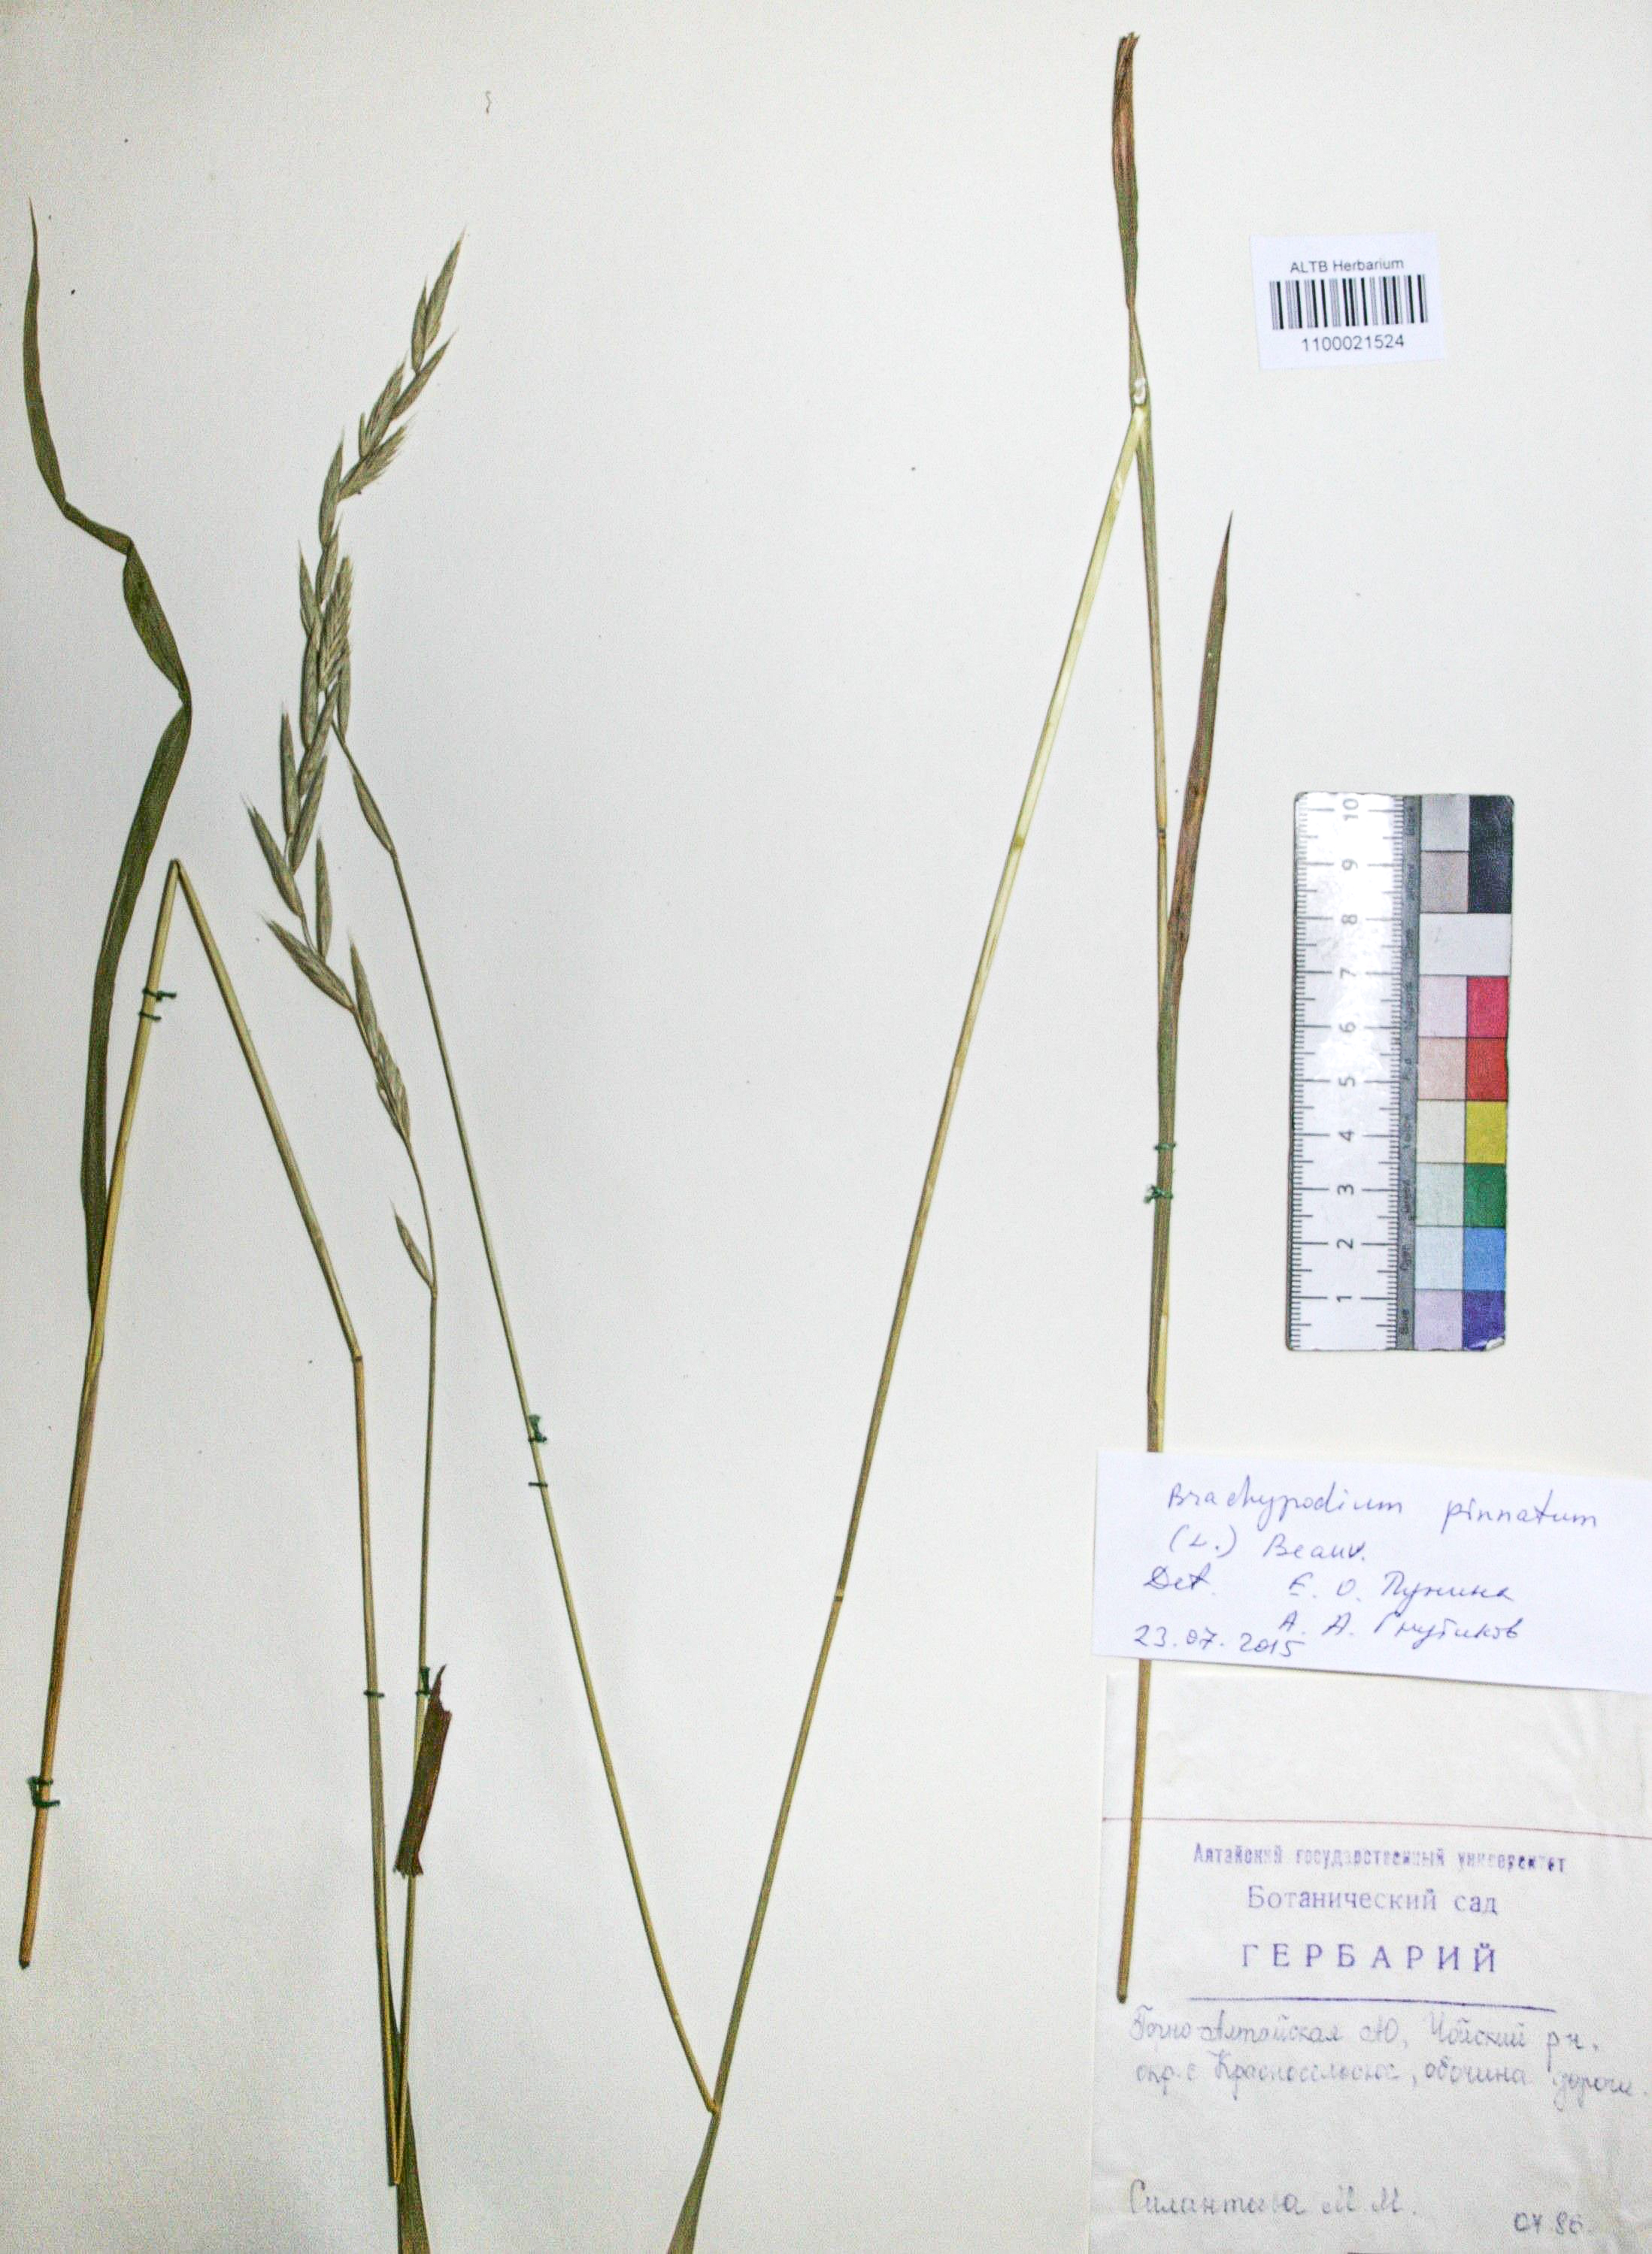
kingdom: Plantae
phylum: Tracheophyta
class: Liliopsida
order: Poales
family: Poaceae
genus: Brachypodium
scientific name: Brachypodium pinnatum
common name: Tor grass
